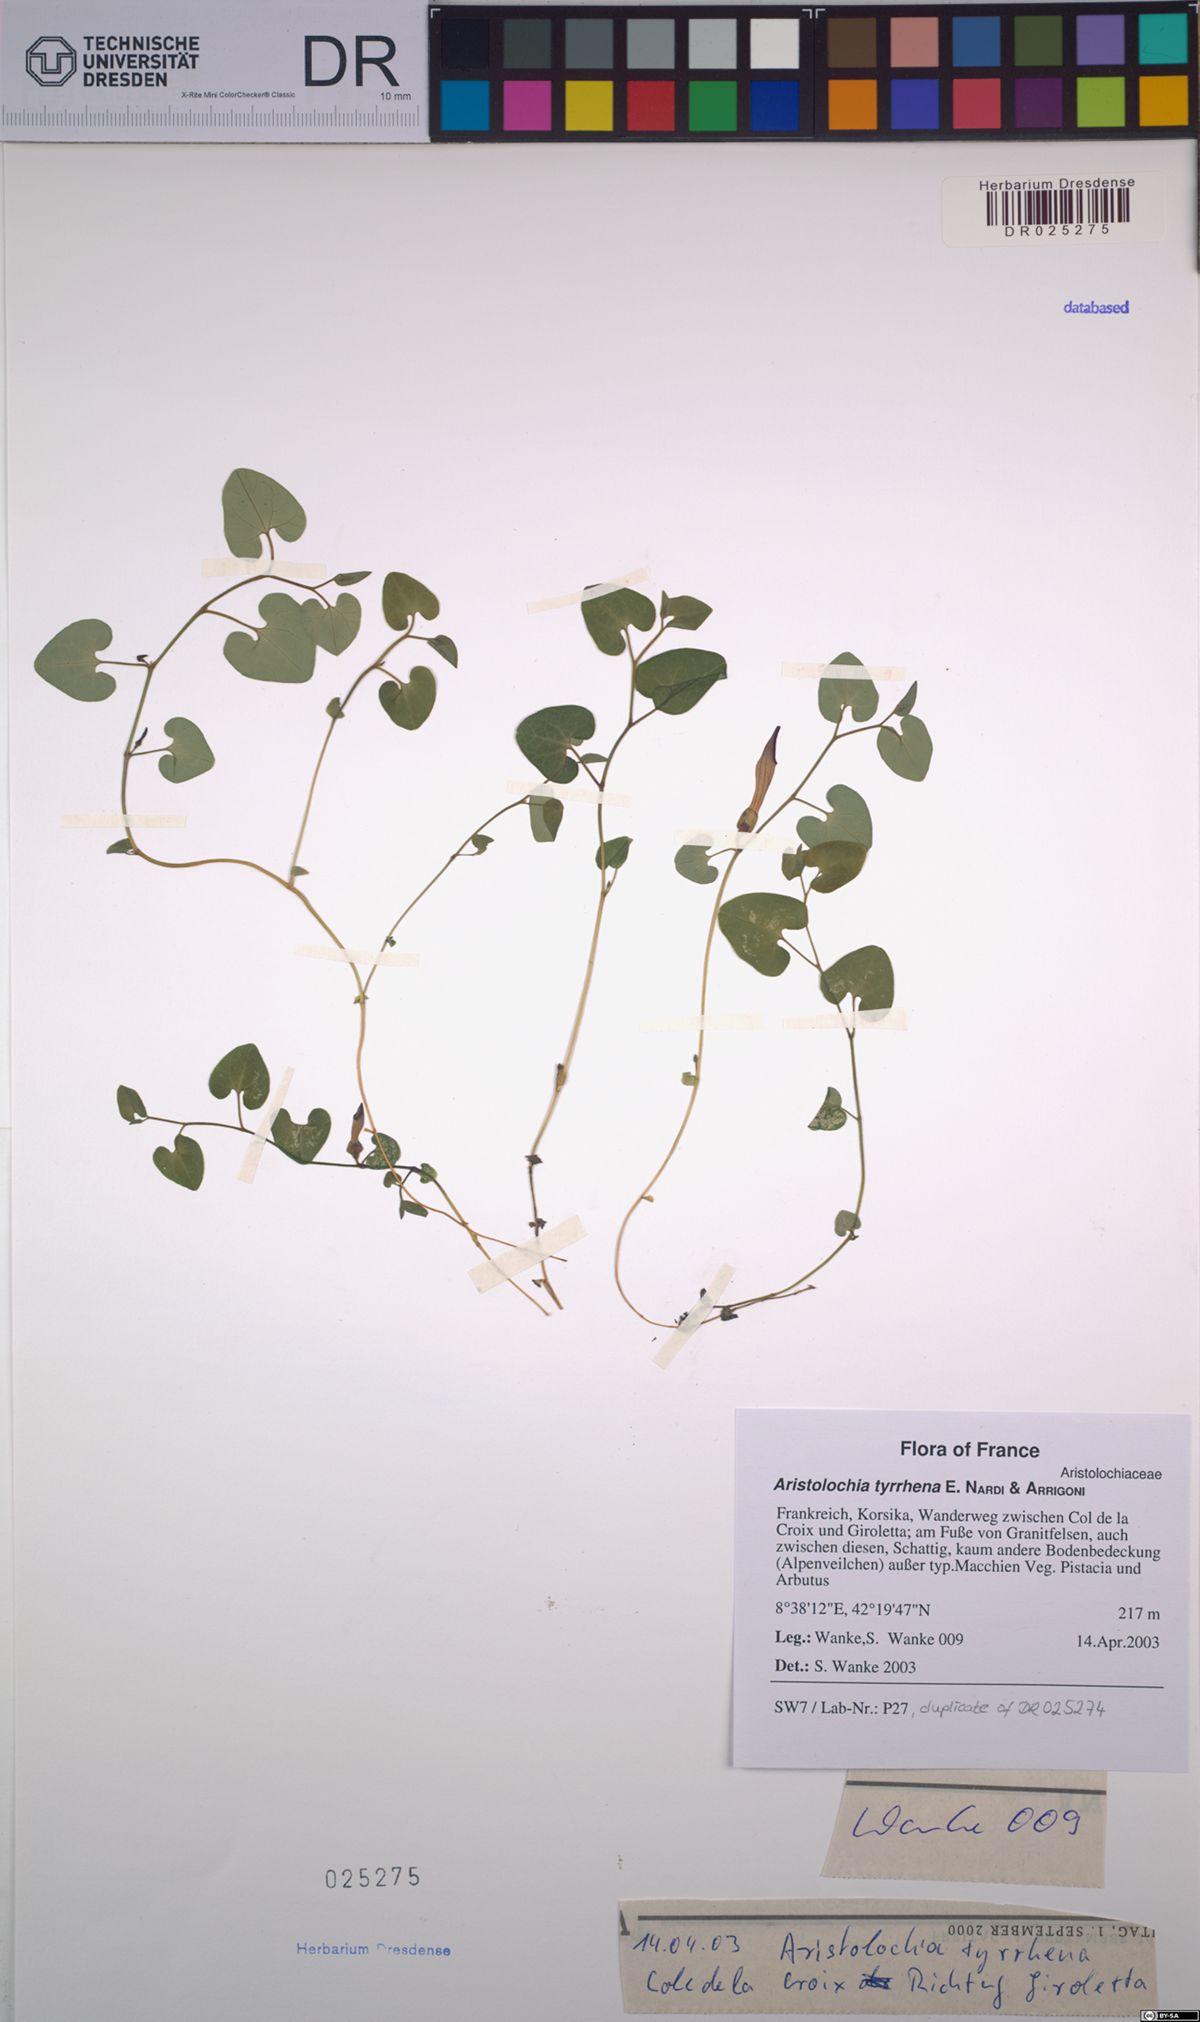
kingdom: Plantae
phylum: Tracheophyta
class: Magnoliopsida
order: Piperales
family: Aristolochiaceae
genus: Aristolochia
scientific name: Aristolochia tyrrhena
